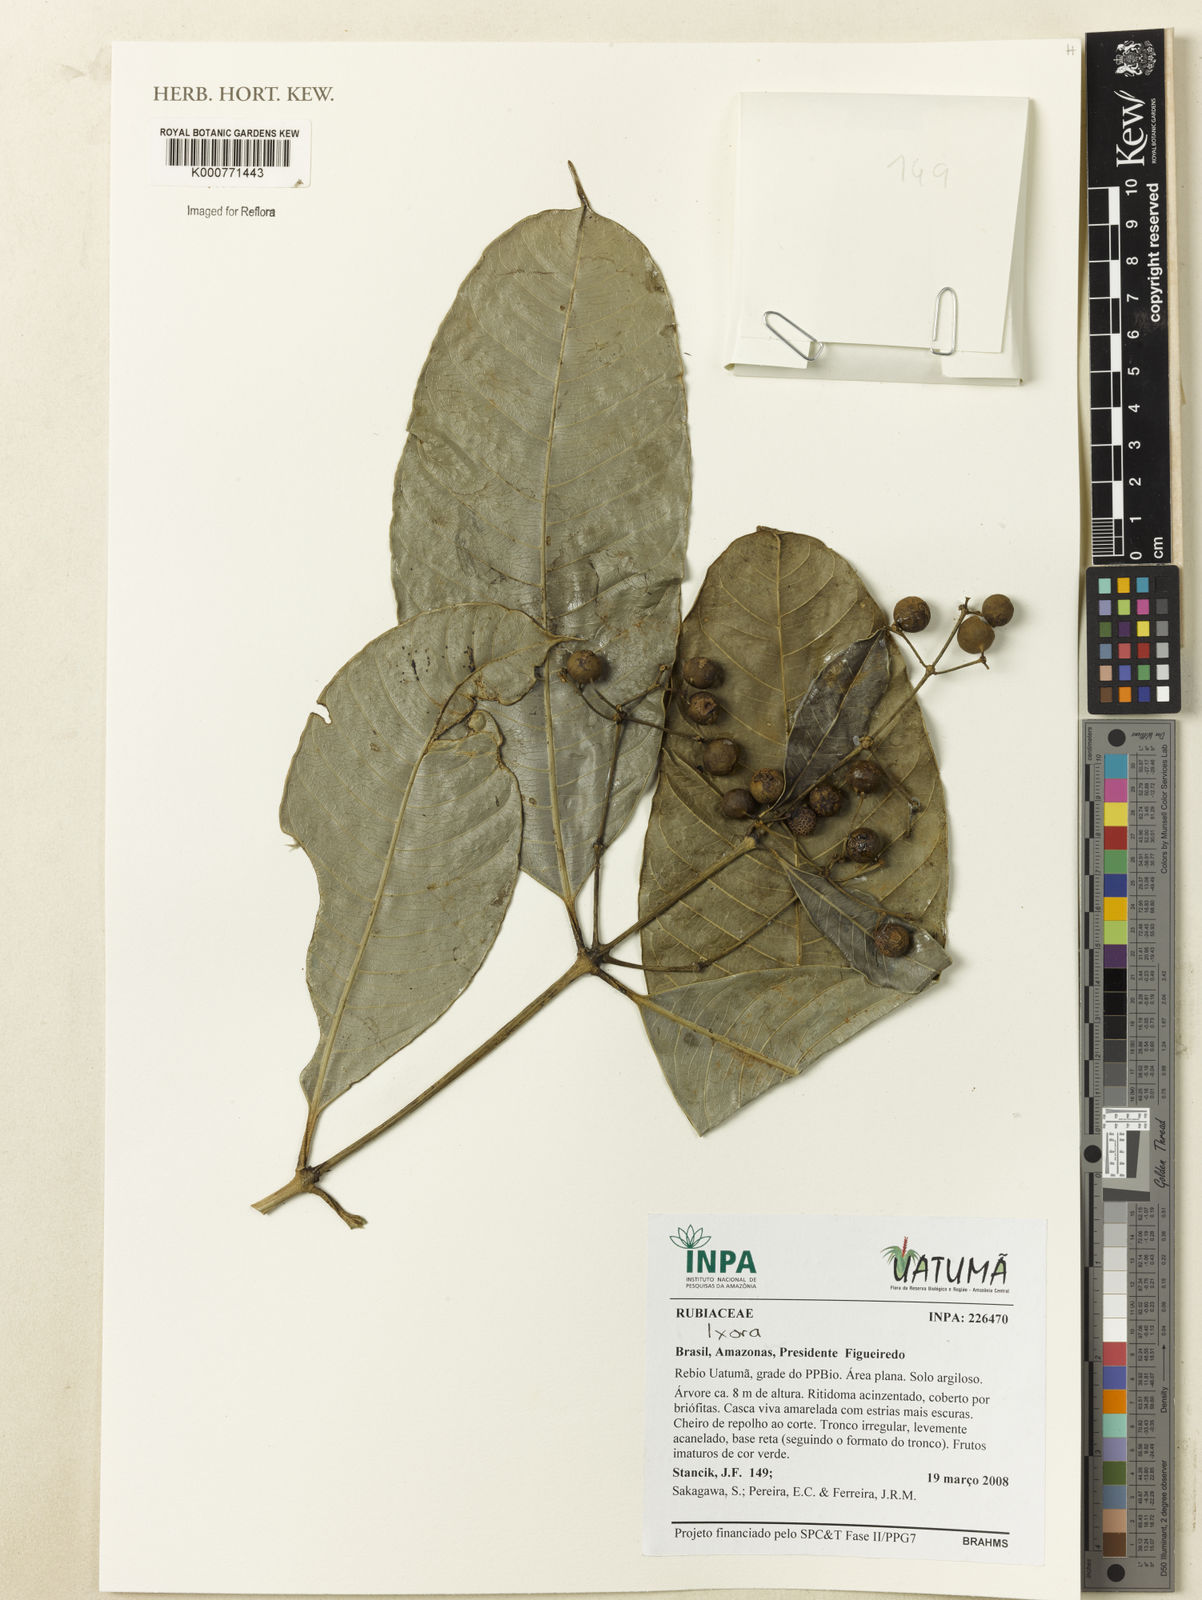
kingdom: Plantae
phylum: Tracheophyta
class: Magnoliopsida
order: Gentianales
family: Rubiaceae
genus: Ixora
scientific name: Ixora
